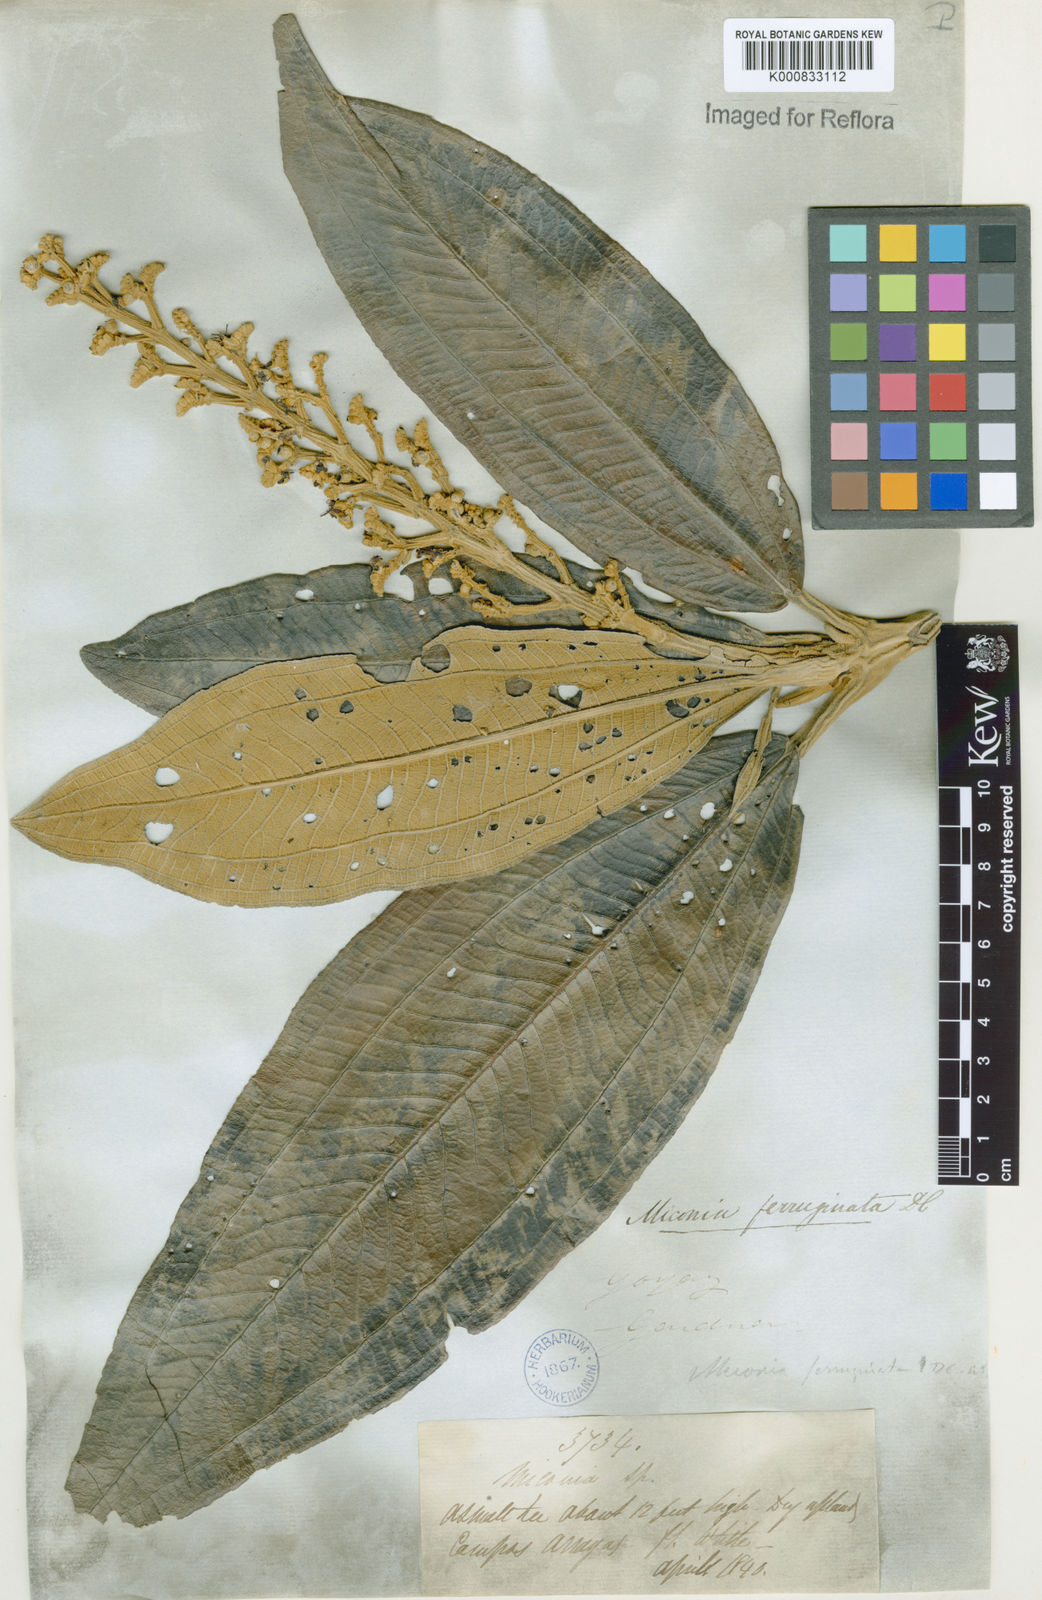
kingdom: Plantae
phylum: Tracheophyta
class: Magnoliopsida
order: Myrtales
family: Melastomataceae
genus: Miconia
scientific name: Miconia ferruginata
